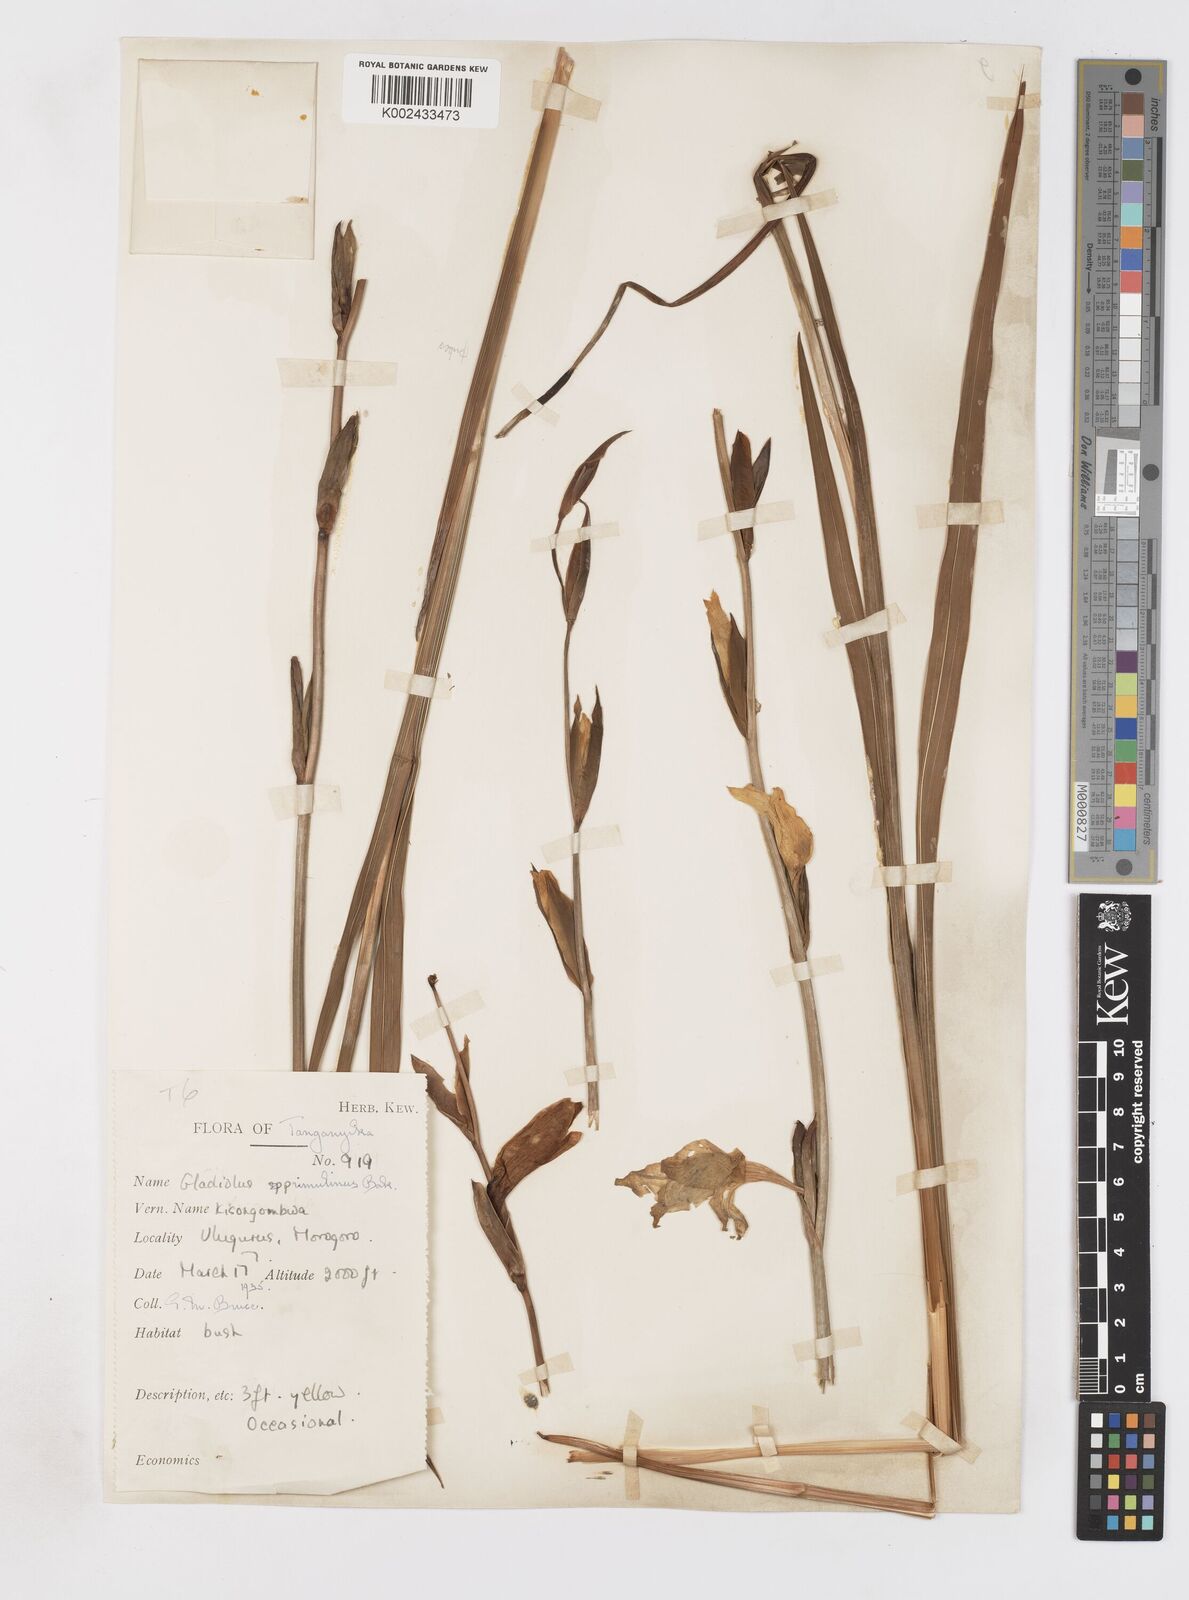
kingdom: Plantae
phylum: Tracheophyta
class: Liliopsida
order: Asparagales
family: Iridaceae
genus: Gladiolus
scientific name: Gladiolus dalenii
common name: Cornflag
